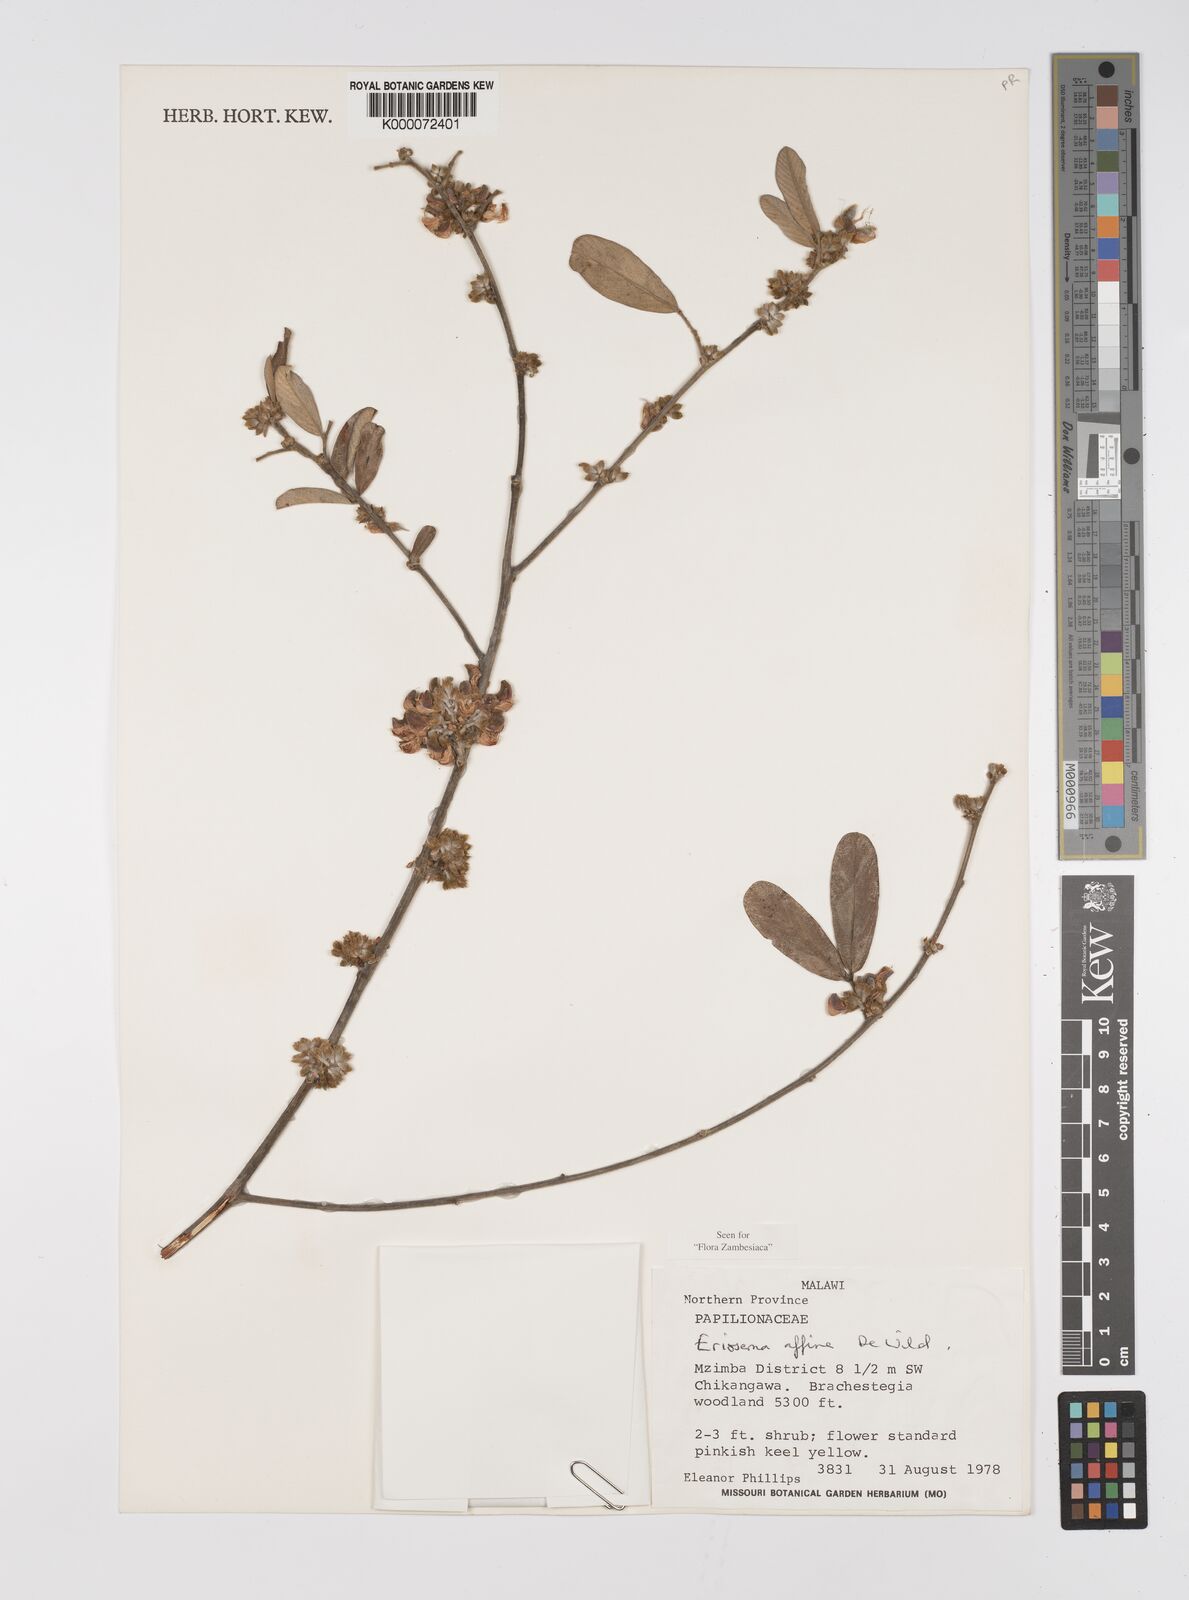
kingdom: Plantae
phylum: Tracheophyta
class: Magnoliopsida
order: Fabales
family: Fabaceae
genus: Eriosema
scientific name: Eriosema affine
